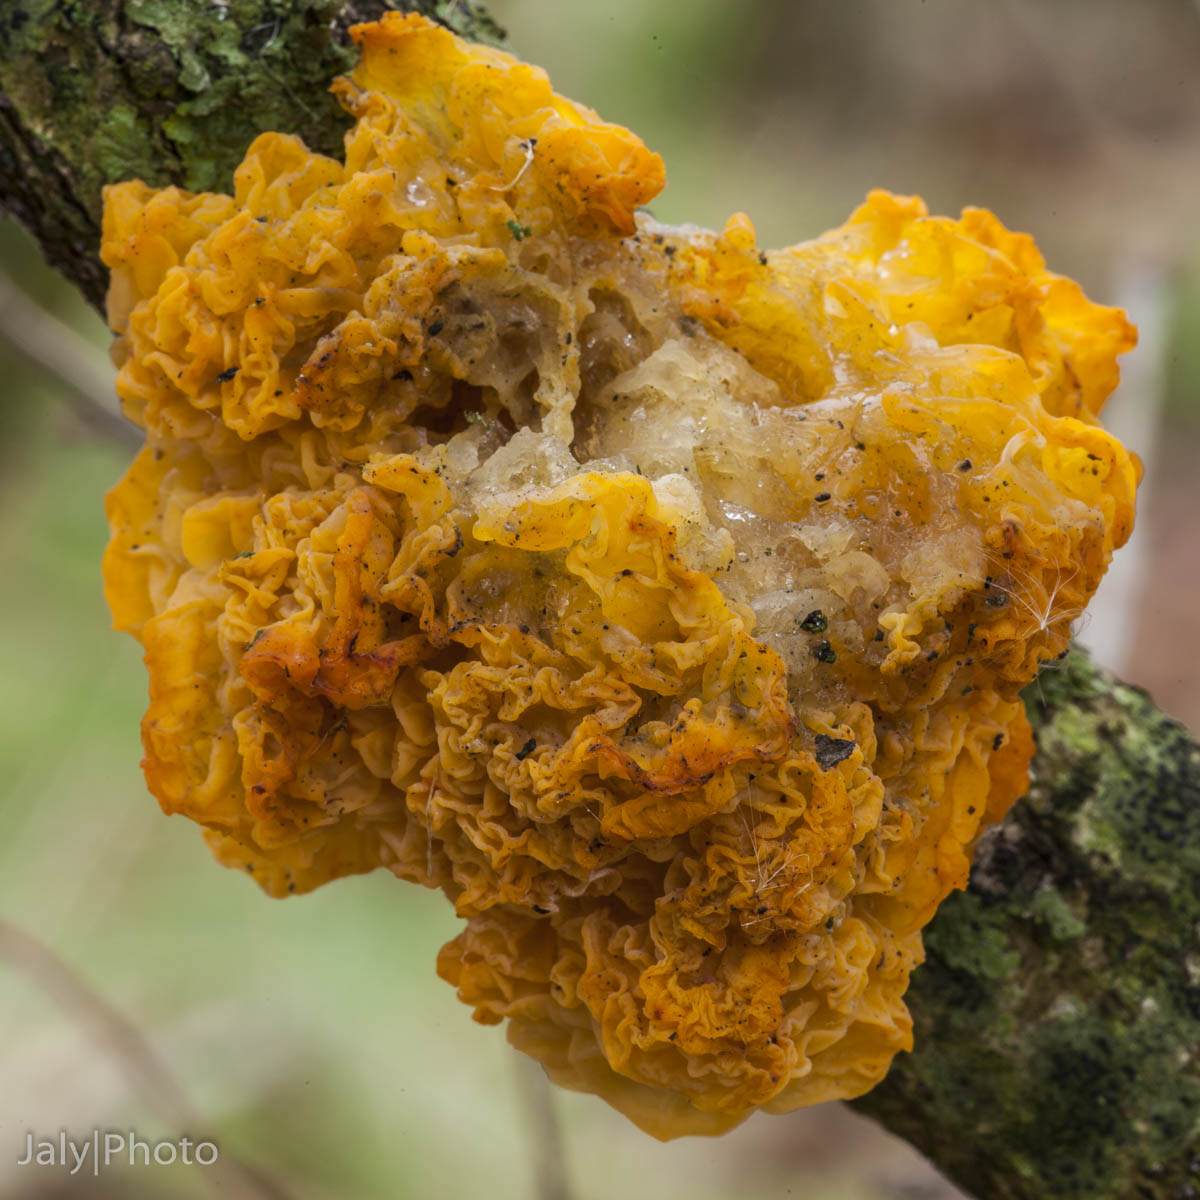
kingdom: Fungi
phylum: Basidiomycota
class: Tremellomycetes
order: Tremellales
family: Tremellaceae
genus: Tremella
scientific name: Tremella mesenterica
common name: gul bævresvamp
